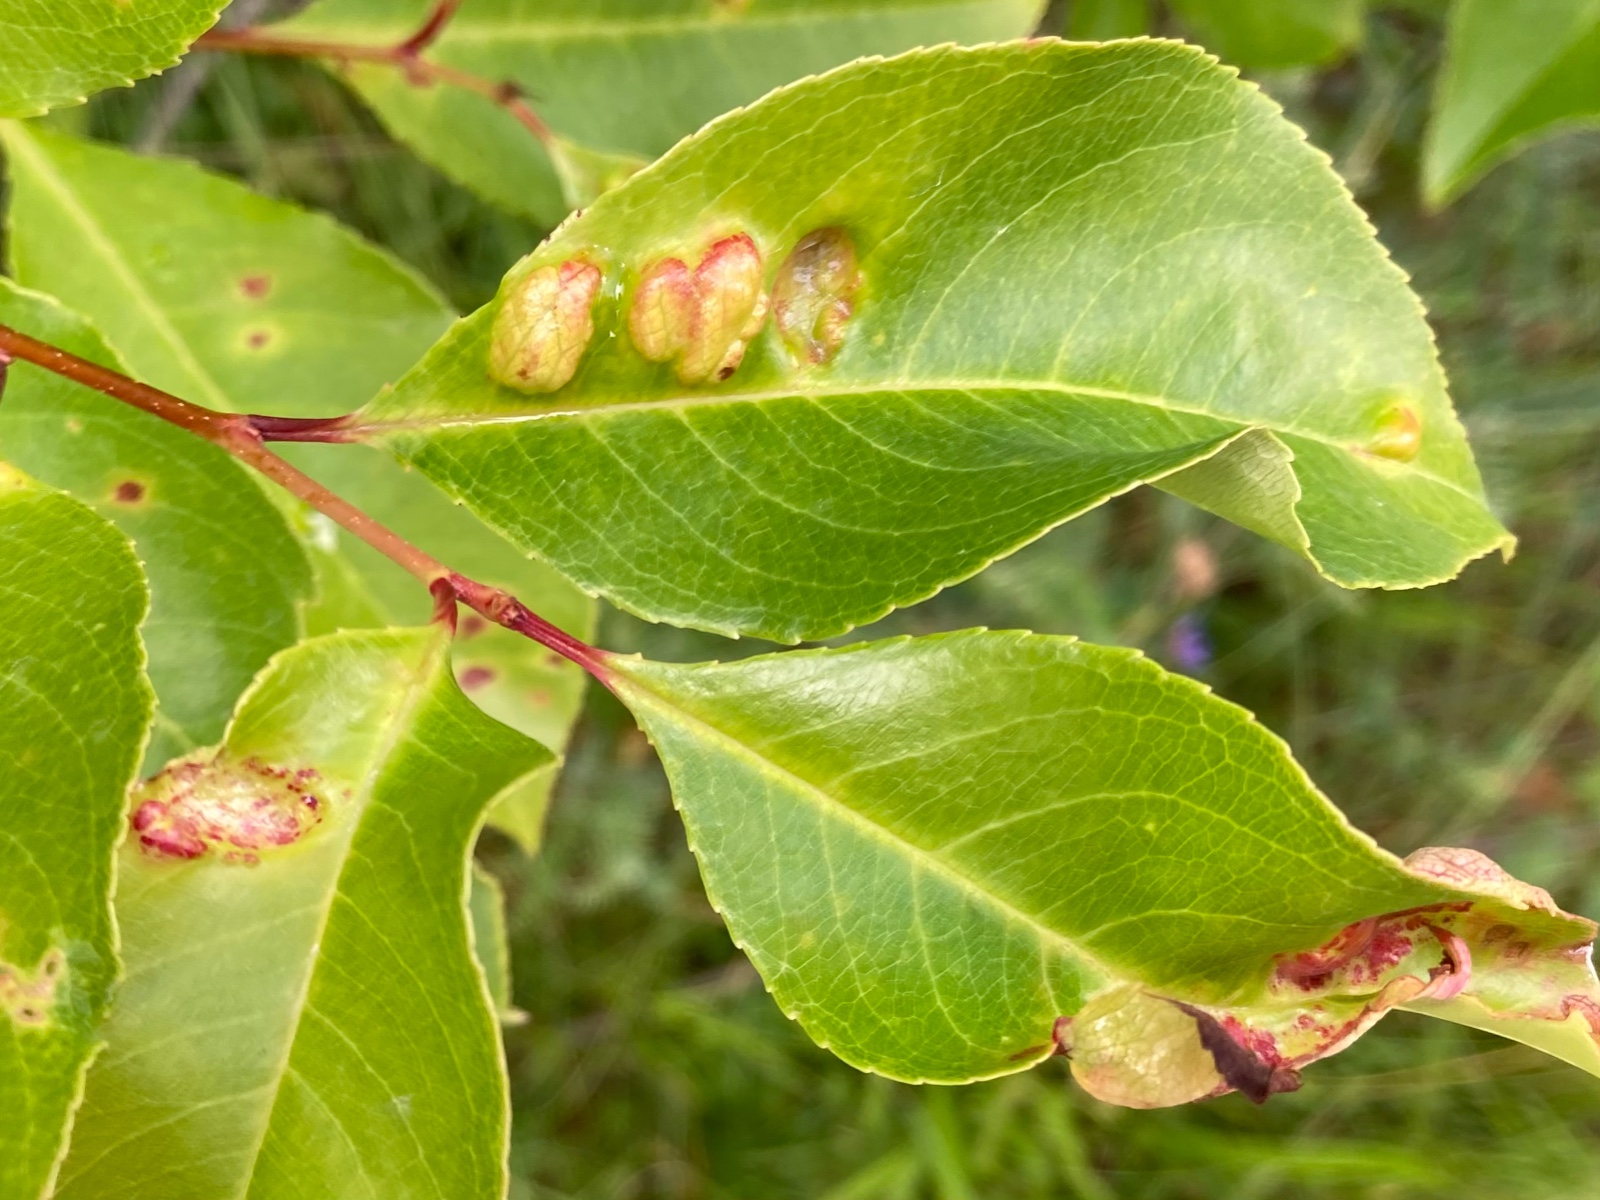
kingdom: Fungi
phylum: Ascomycota
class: Taphrinomycetes
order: Taphrinales
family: Taphrinaceae
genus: Taphrina
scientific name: Taphrina farlowii
